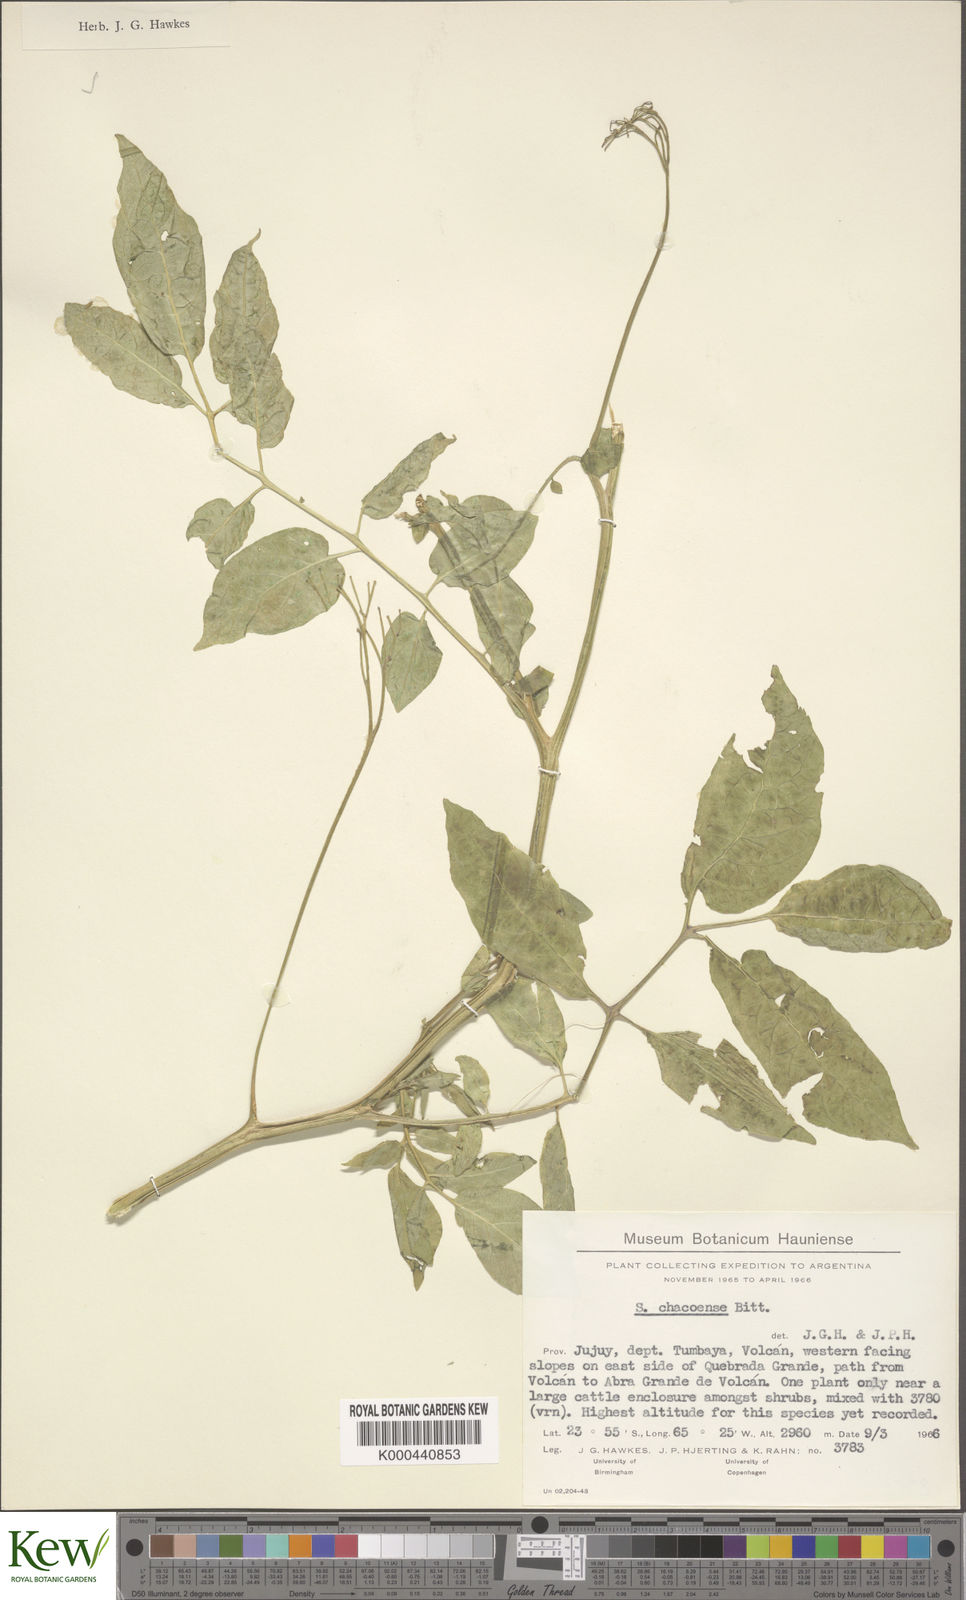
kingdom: Plantae
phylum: Tracheophyta
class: Magnoliopsida
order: Solanales
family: Solanaceae
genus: Solanum
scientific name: Solanum chacoense
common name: Chaco potato
